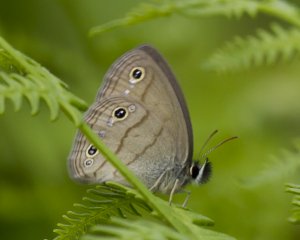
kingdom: Animalia
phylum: Arthropoda
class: Insecta
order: Lepidoptera
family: Nymphalidae
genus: Euptychia
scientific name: Euptychia cymela
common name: Little Wood Satyr
